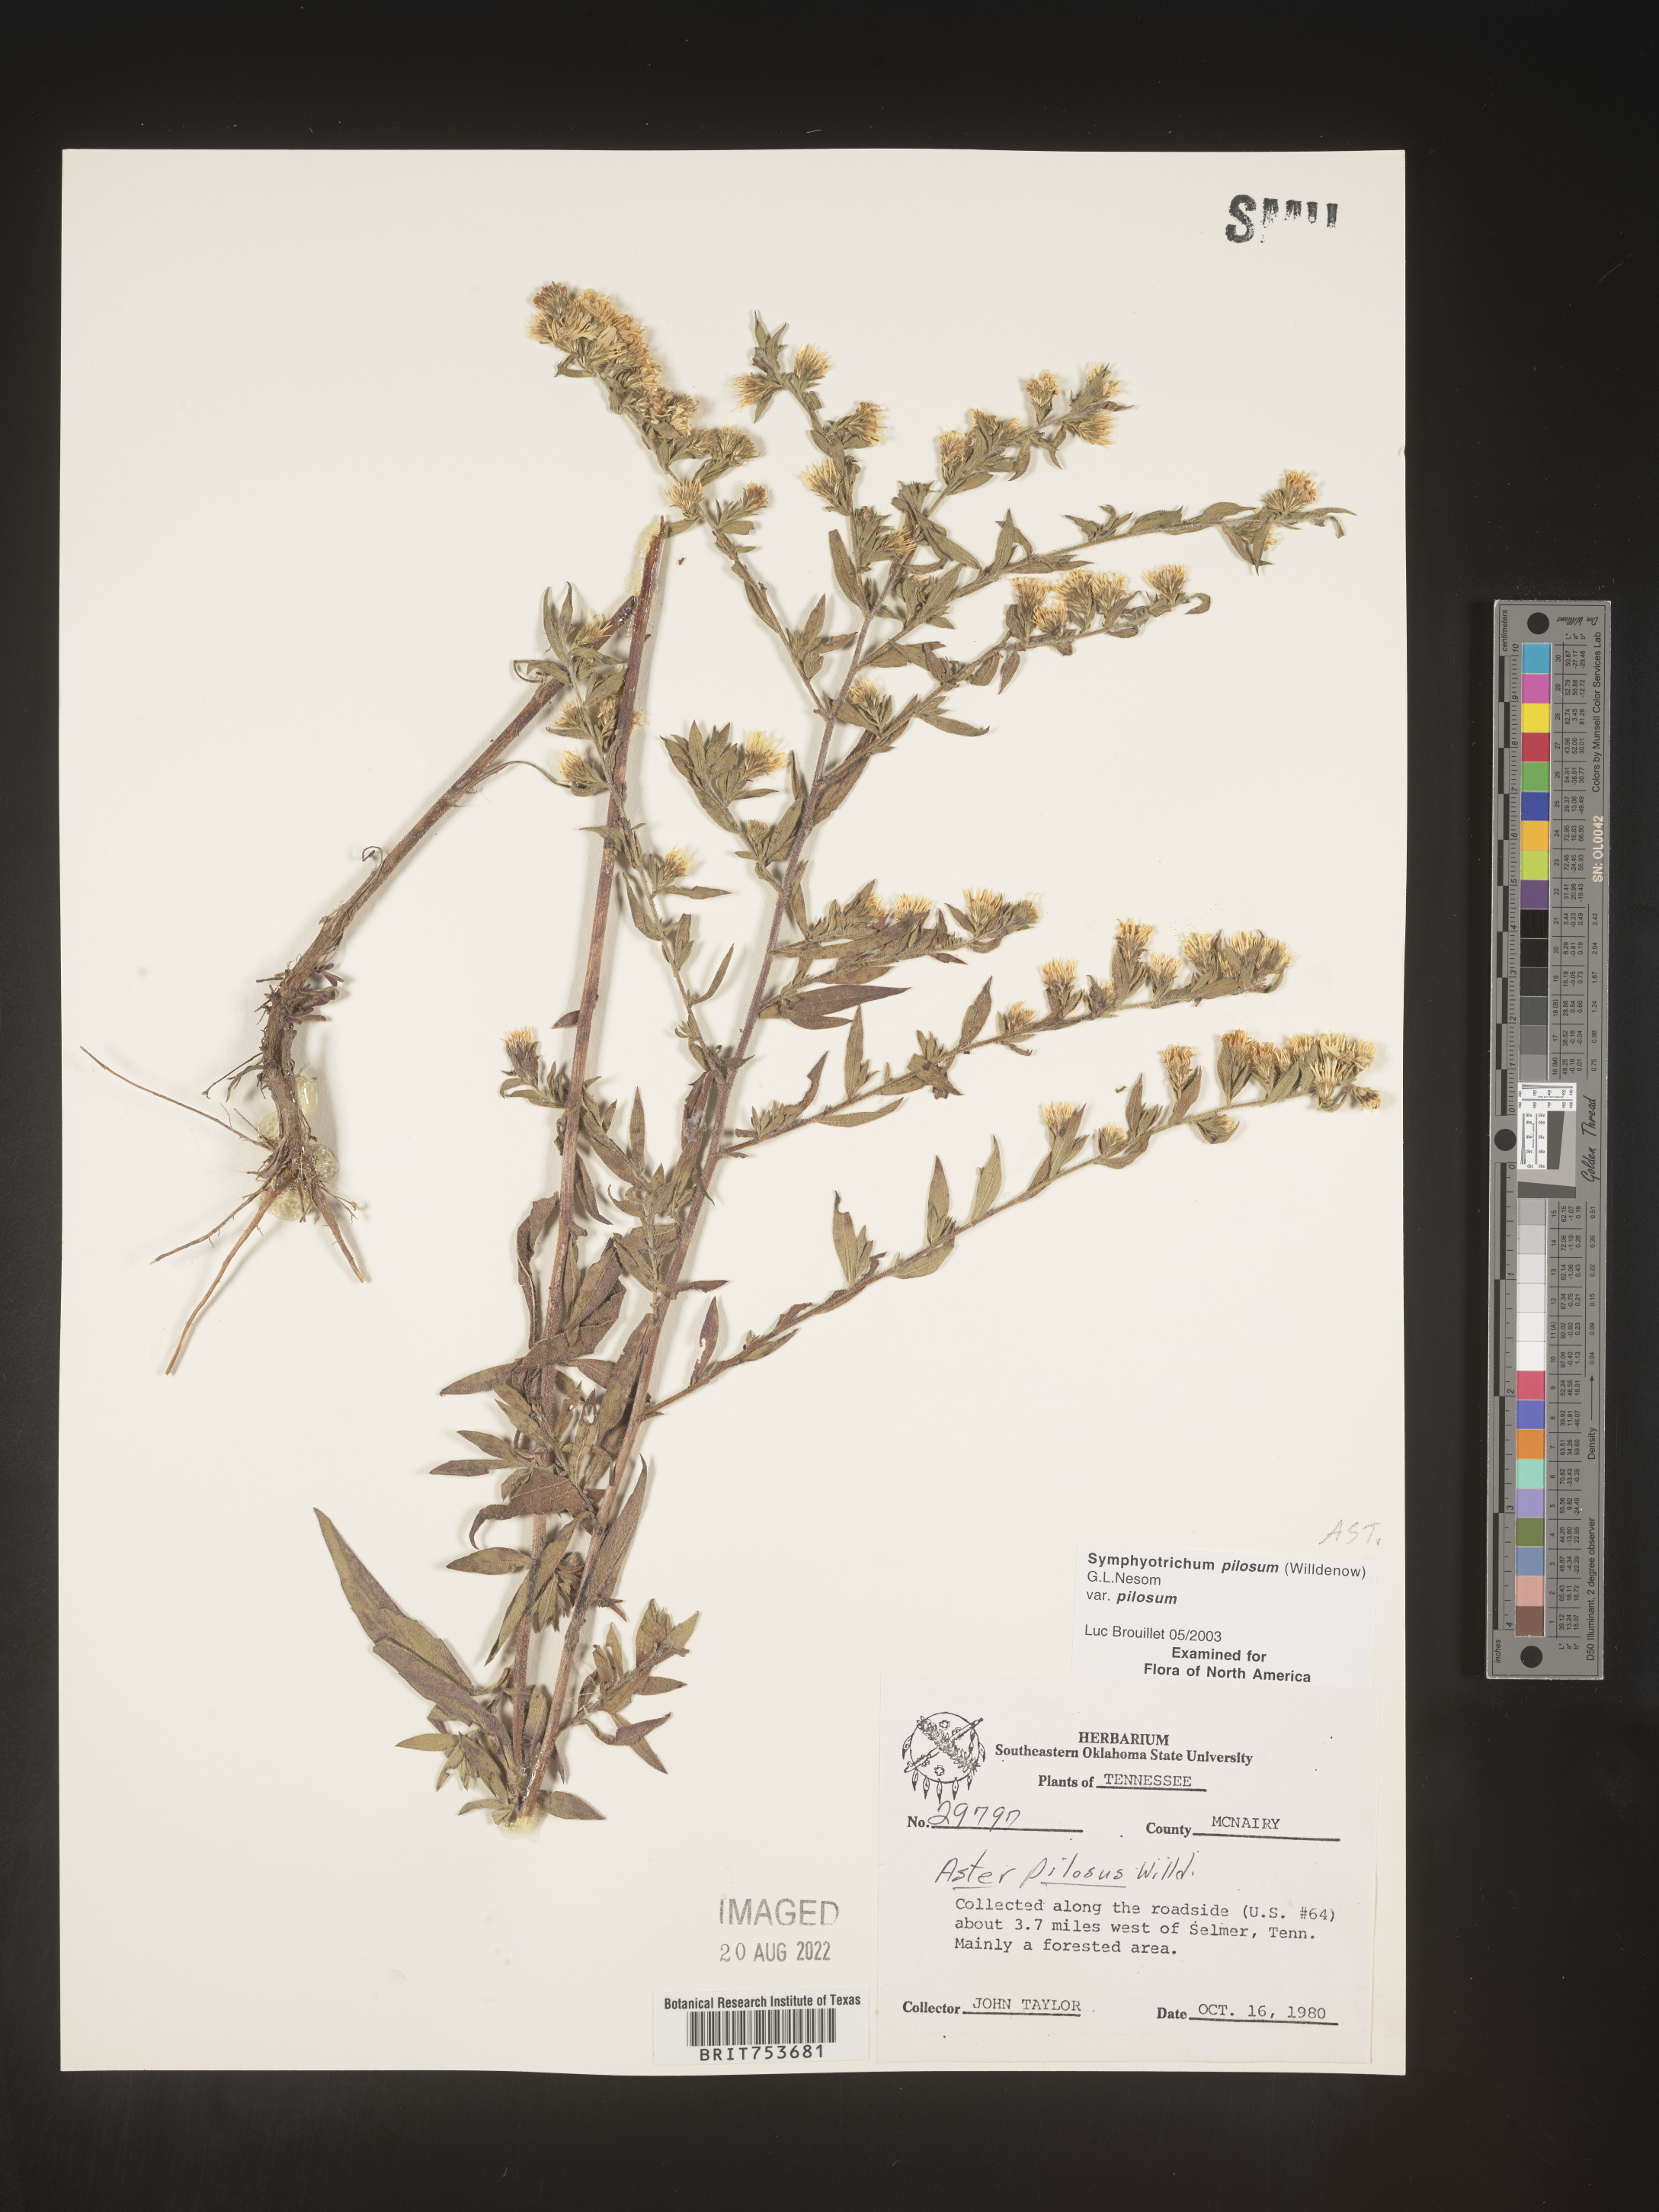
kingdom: Plantae
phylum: Tracheophyta
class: Magnoliopsida
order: Asterales
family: Asteraceae
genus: Symphyotrichum
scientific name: Symphyotrichum pilosum
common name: Awl aster
